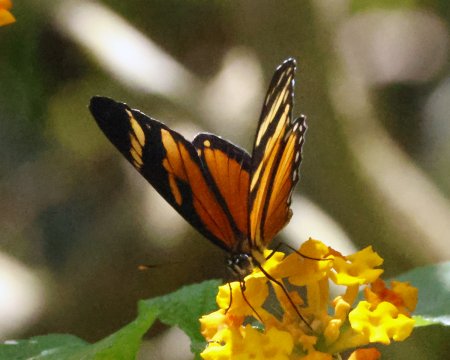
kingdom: Animalia
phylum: Arthropoda
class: Insecta
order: Lepidoptera
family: Nymphalidae
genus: Eresia
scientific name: Eresia ithomioides
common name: Variable Crescent
